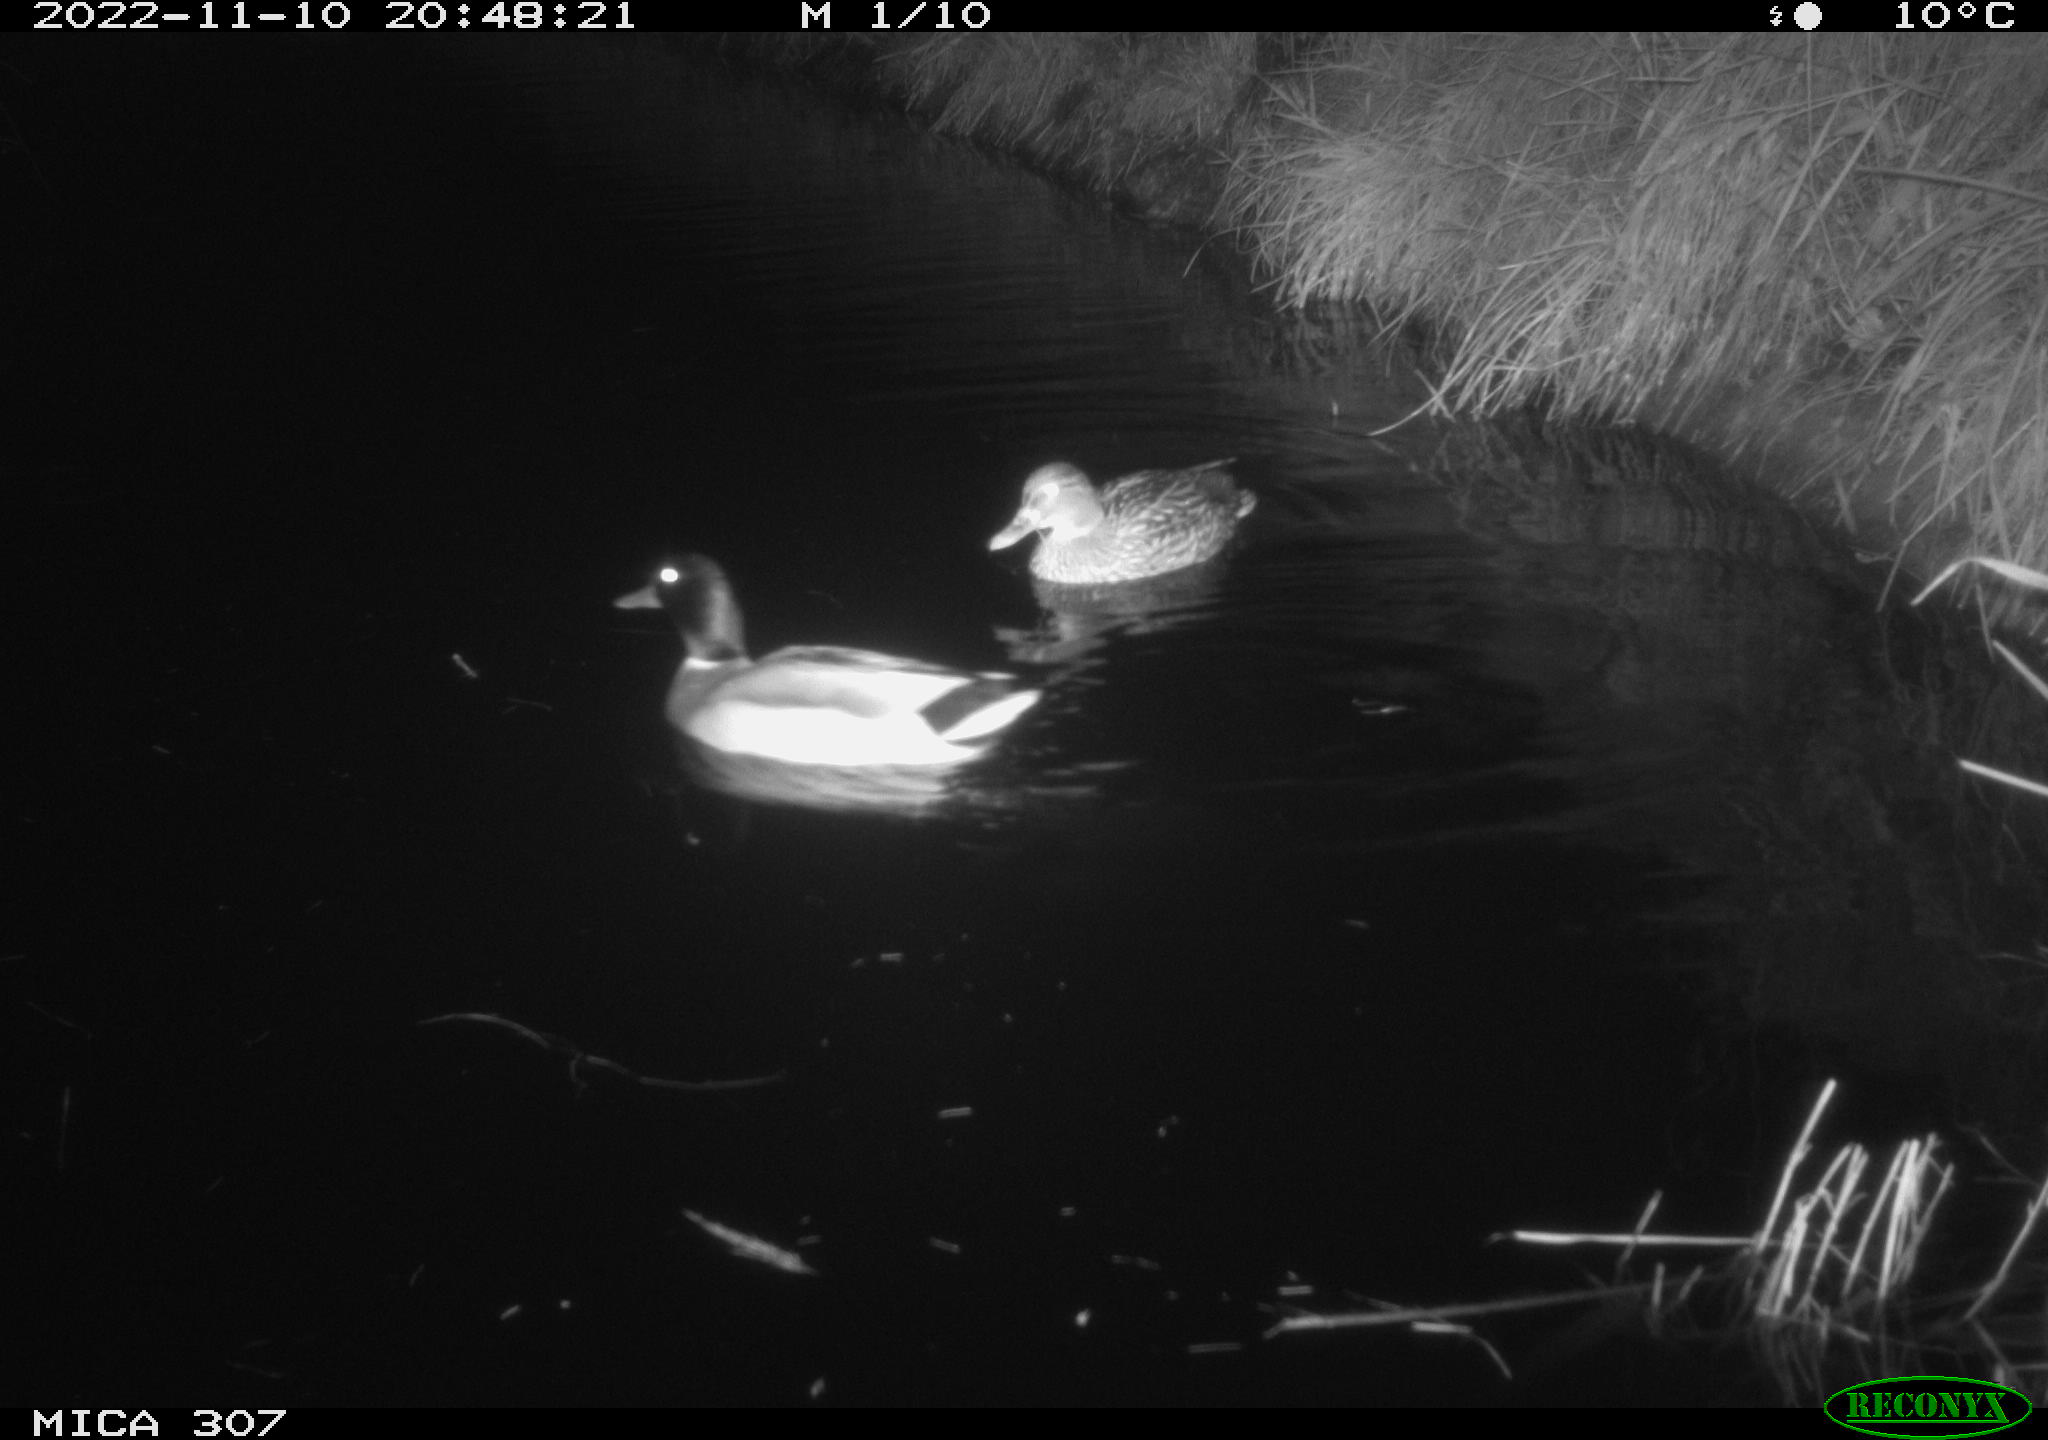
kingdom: Animalia
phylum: Chordata
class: Aves
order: Anseriformes
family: Anatidae
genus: Anas
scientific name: Anas
